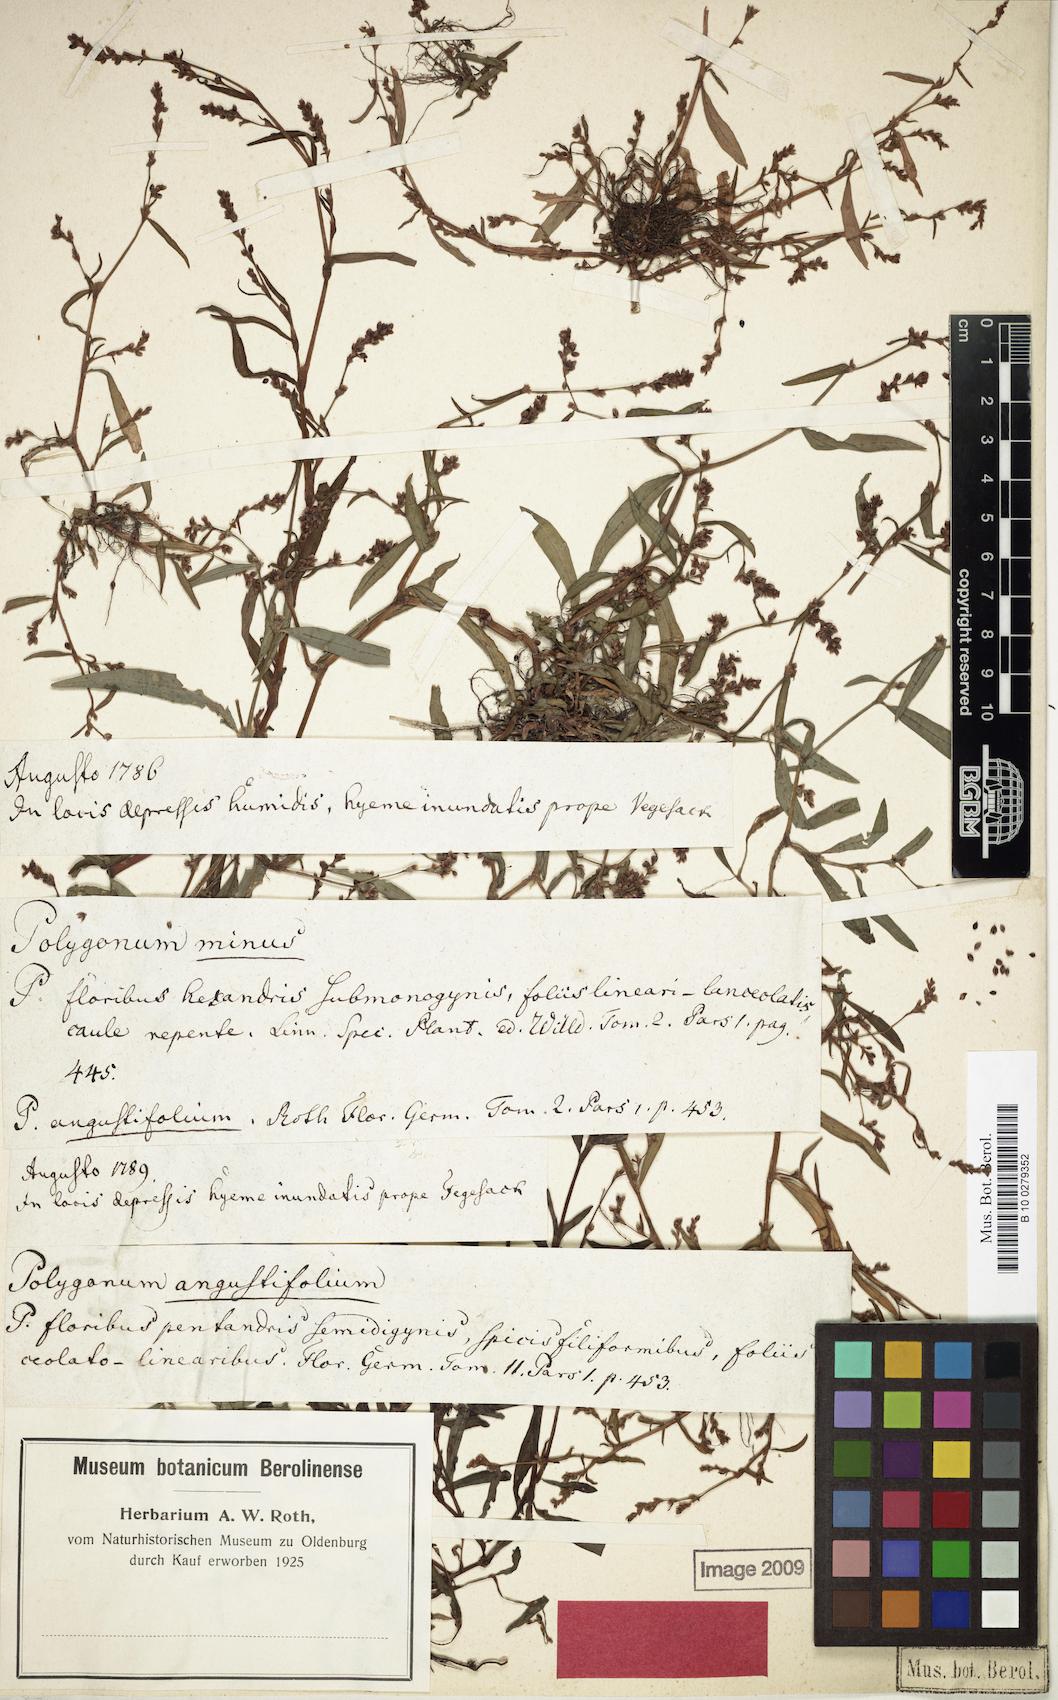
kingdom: Plantae
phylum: Tracheophyta
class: Magnoliopsida
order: Caryophyllales
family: Polygonaceae
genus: Persicaria
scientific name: Persicaria minor
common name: Small water-pepper
